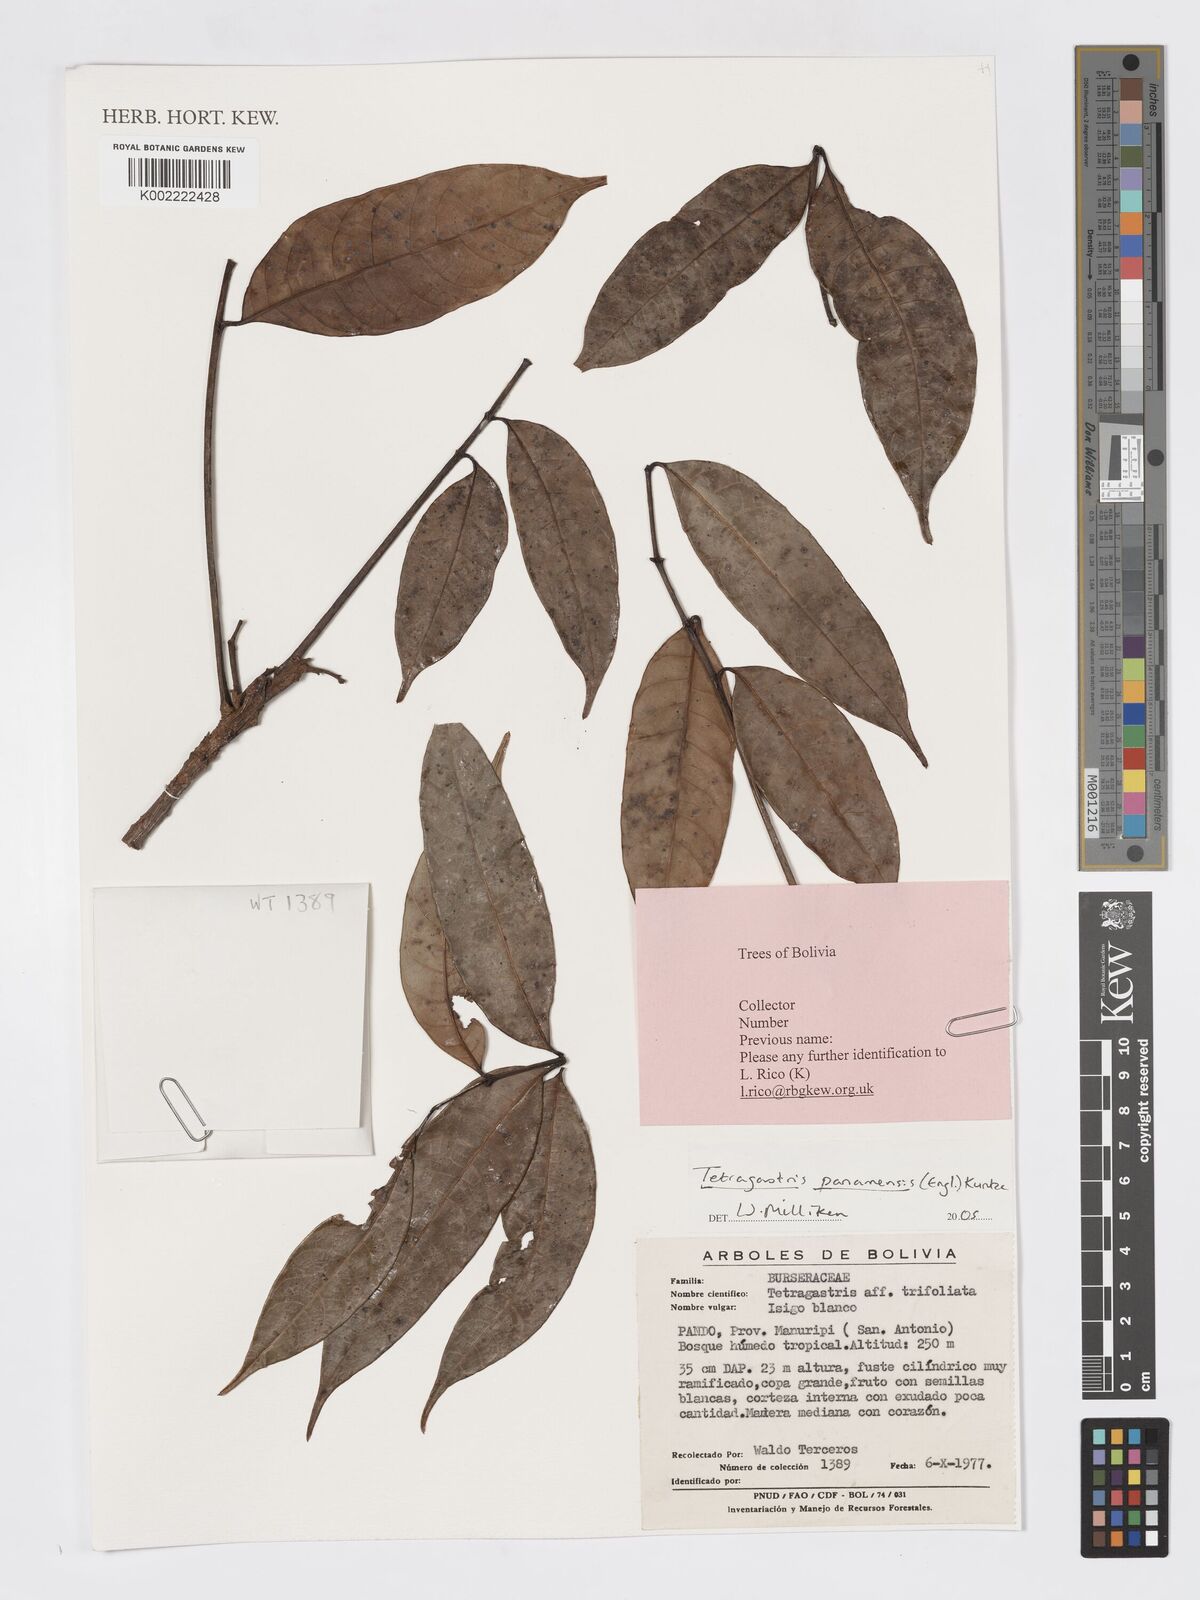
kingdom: Plantae
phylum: Tracheophyta
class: Magnoliopsida
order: Sapindales
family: Burseraceae
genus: Tetragastris
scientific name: Tetragastris panamensis
